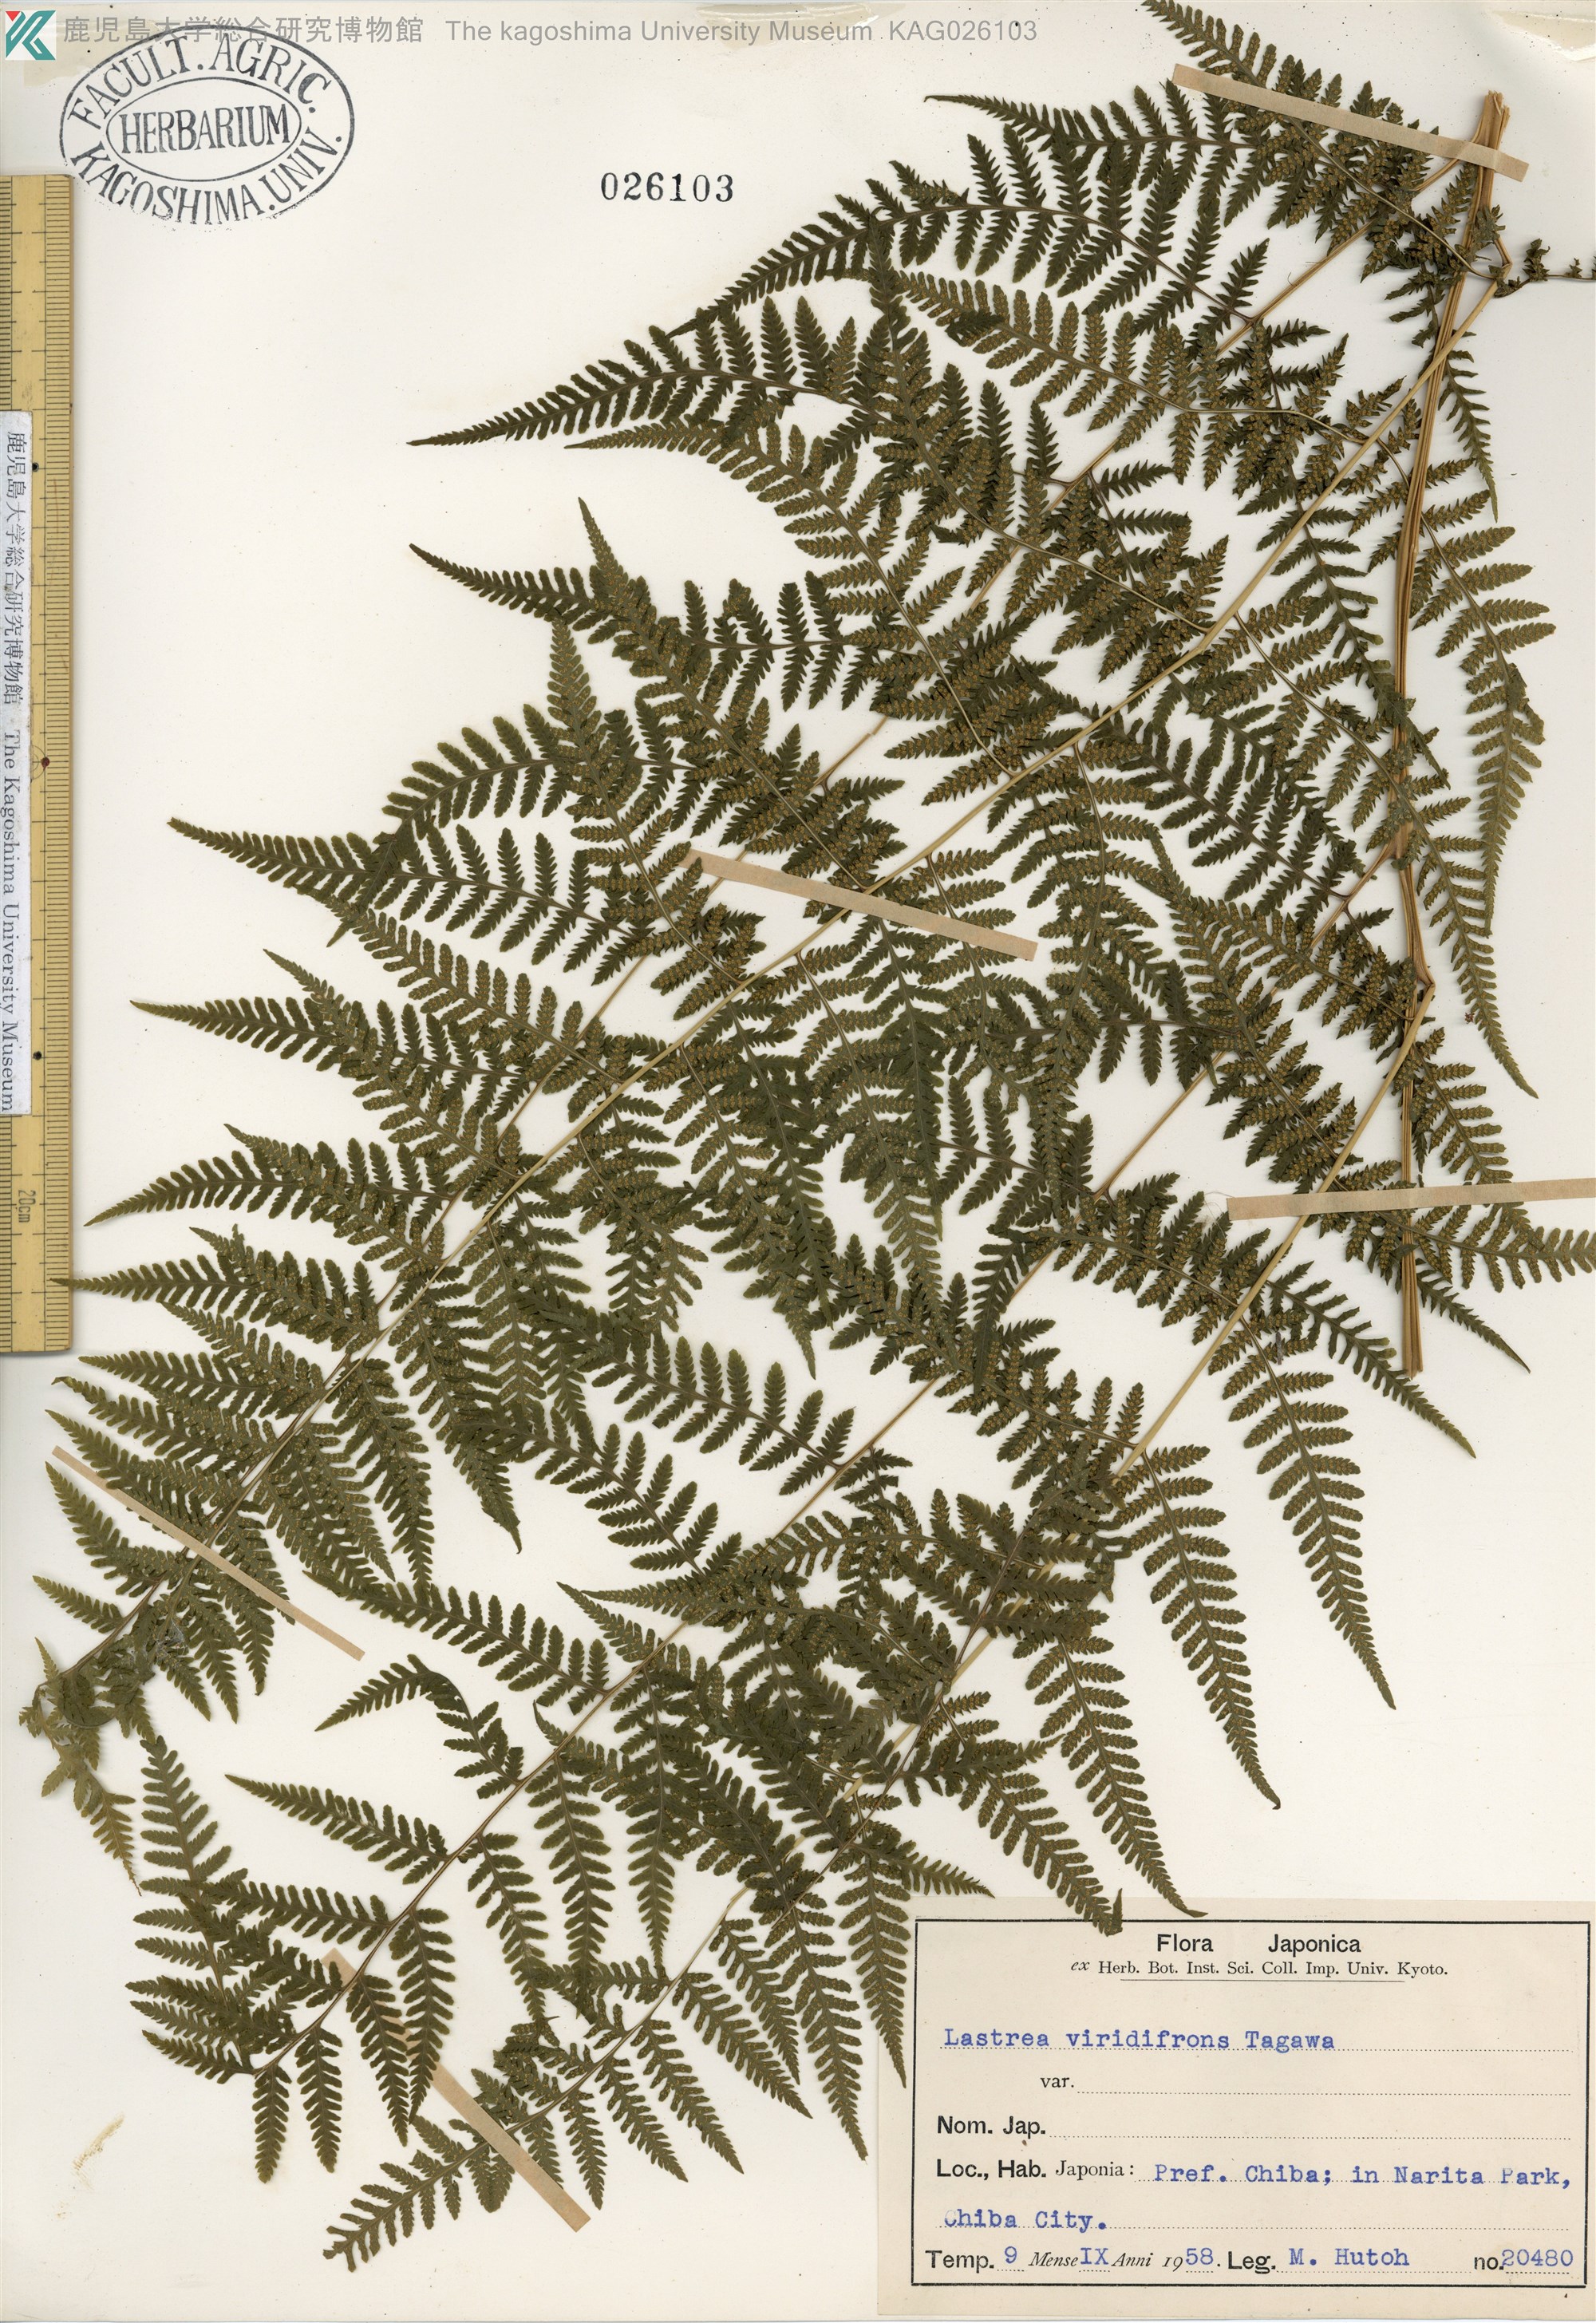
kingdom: Plantae
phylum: Tracheophyta
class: Polypodiopsida
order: Polypodiales
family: Thelypteridaceae
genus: Macrothelypteris
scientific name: Macrothelypteris viridifrons
